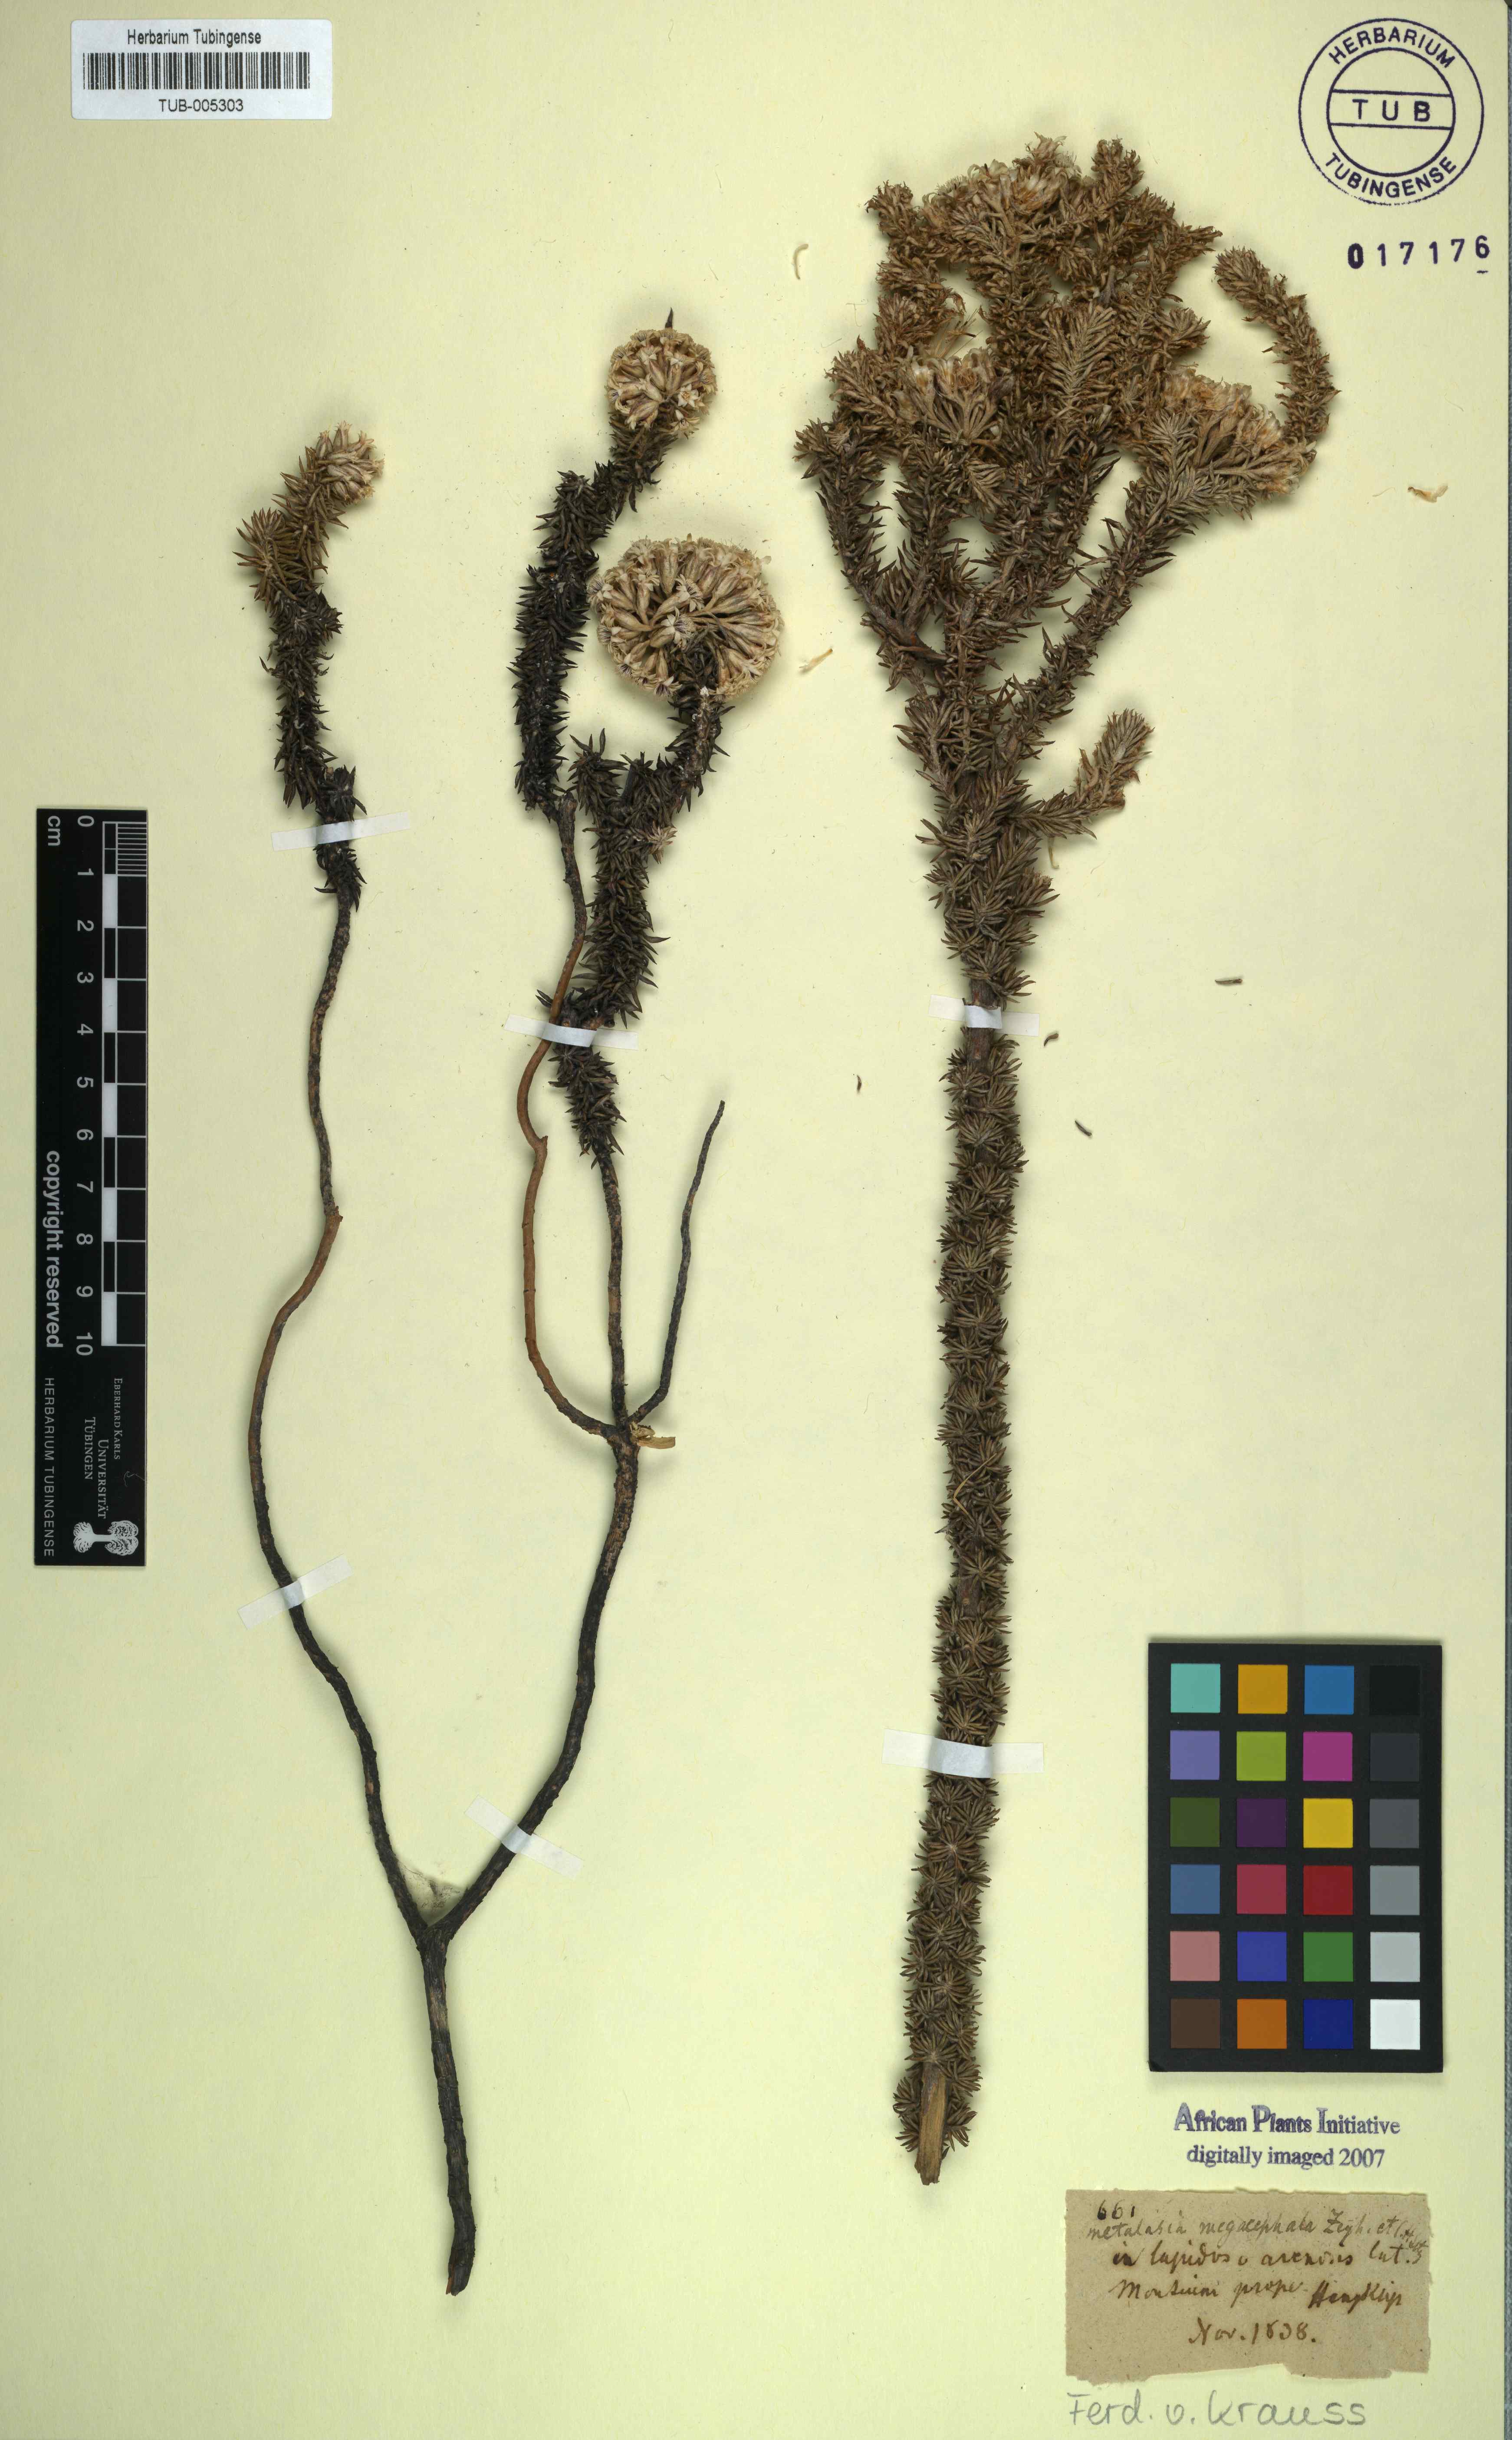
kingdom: Plantae
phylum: Tracheophyta
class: Magnoliopsida
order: Asterales
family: Asteraceae
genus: Metalasia
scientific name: Metalasia
